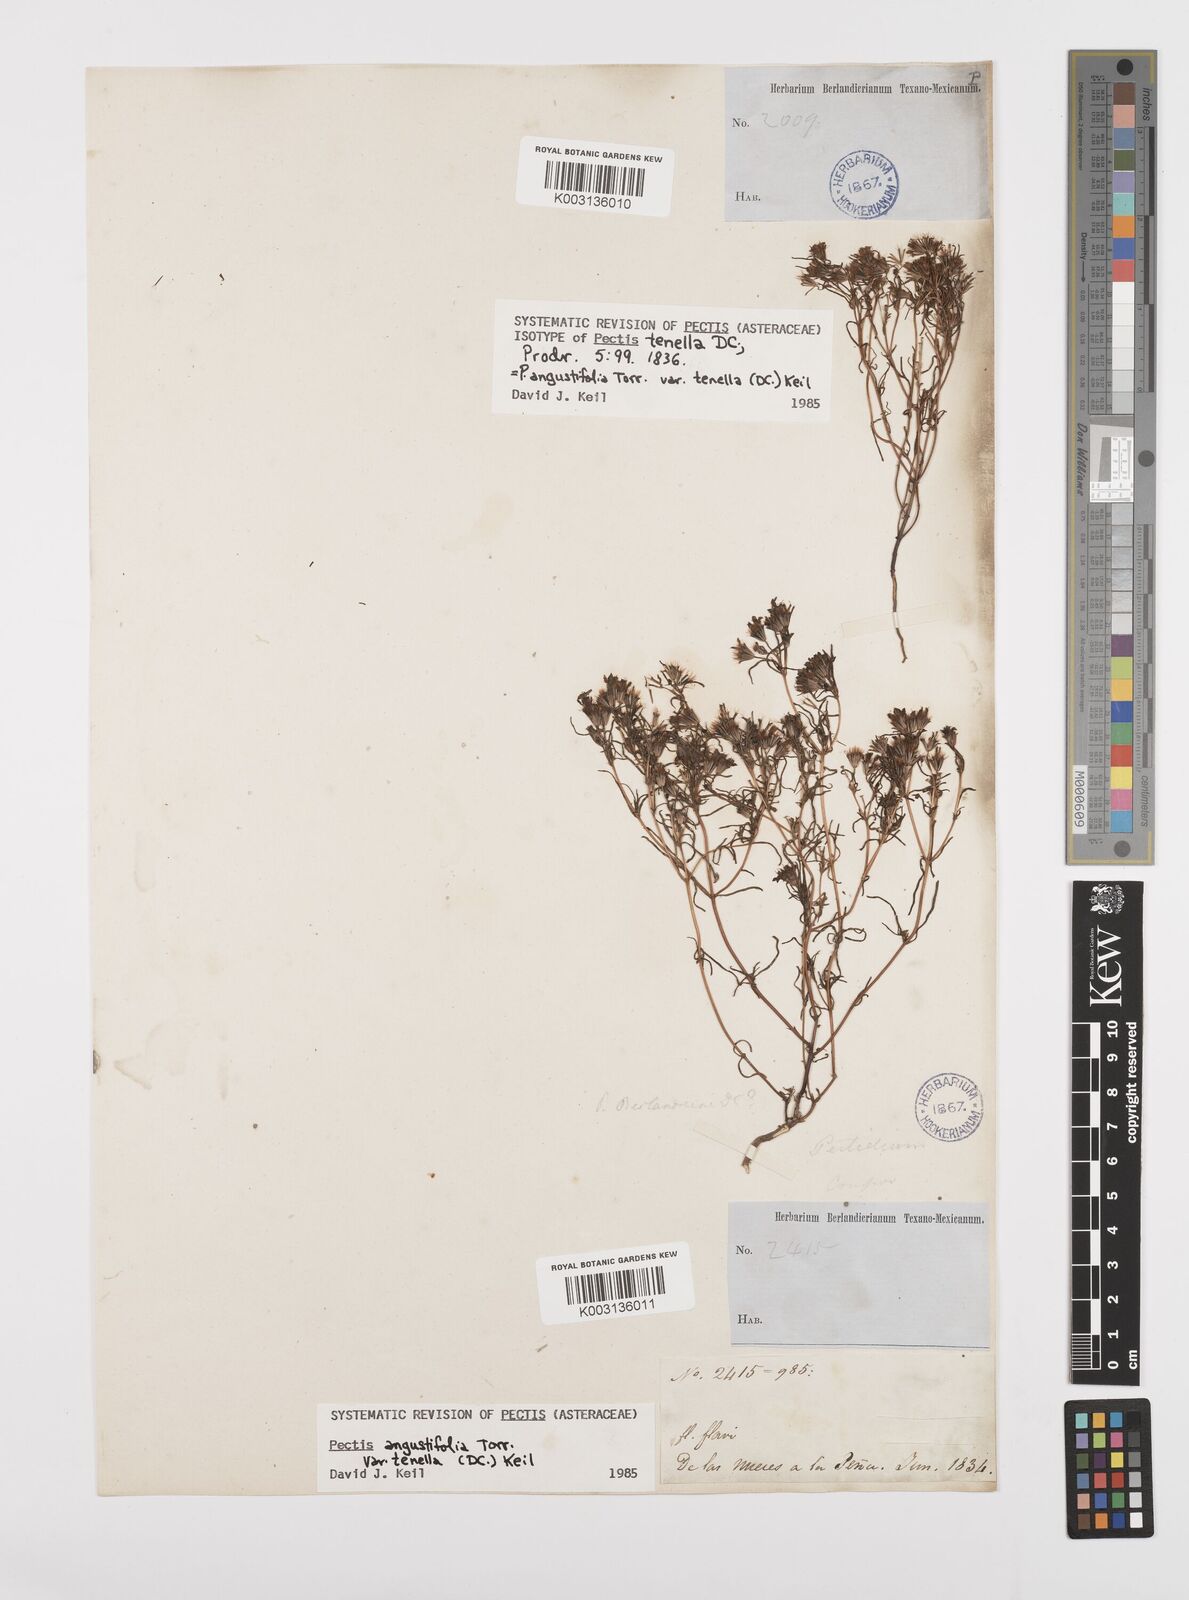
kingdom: Plantae
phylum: Tracheophyta
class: Magnoliopsida
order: Asterales
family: Asteraceae
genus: Pectis
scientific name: Pectis angustifolia
